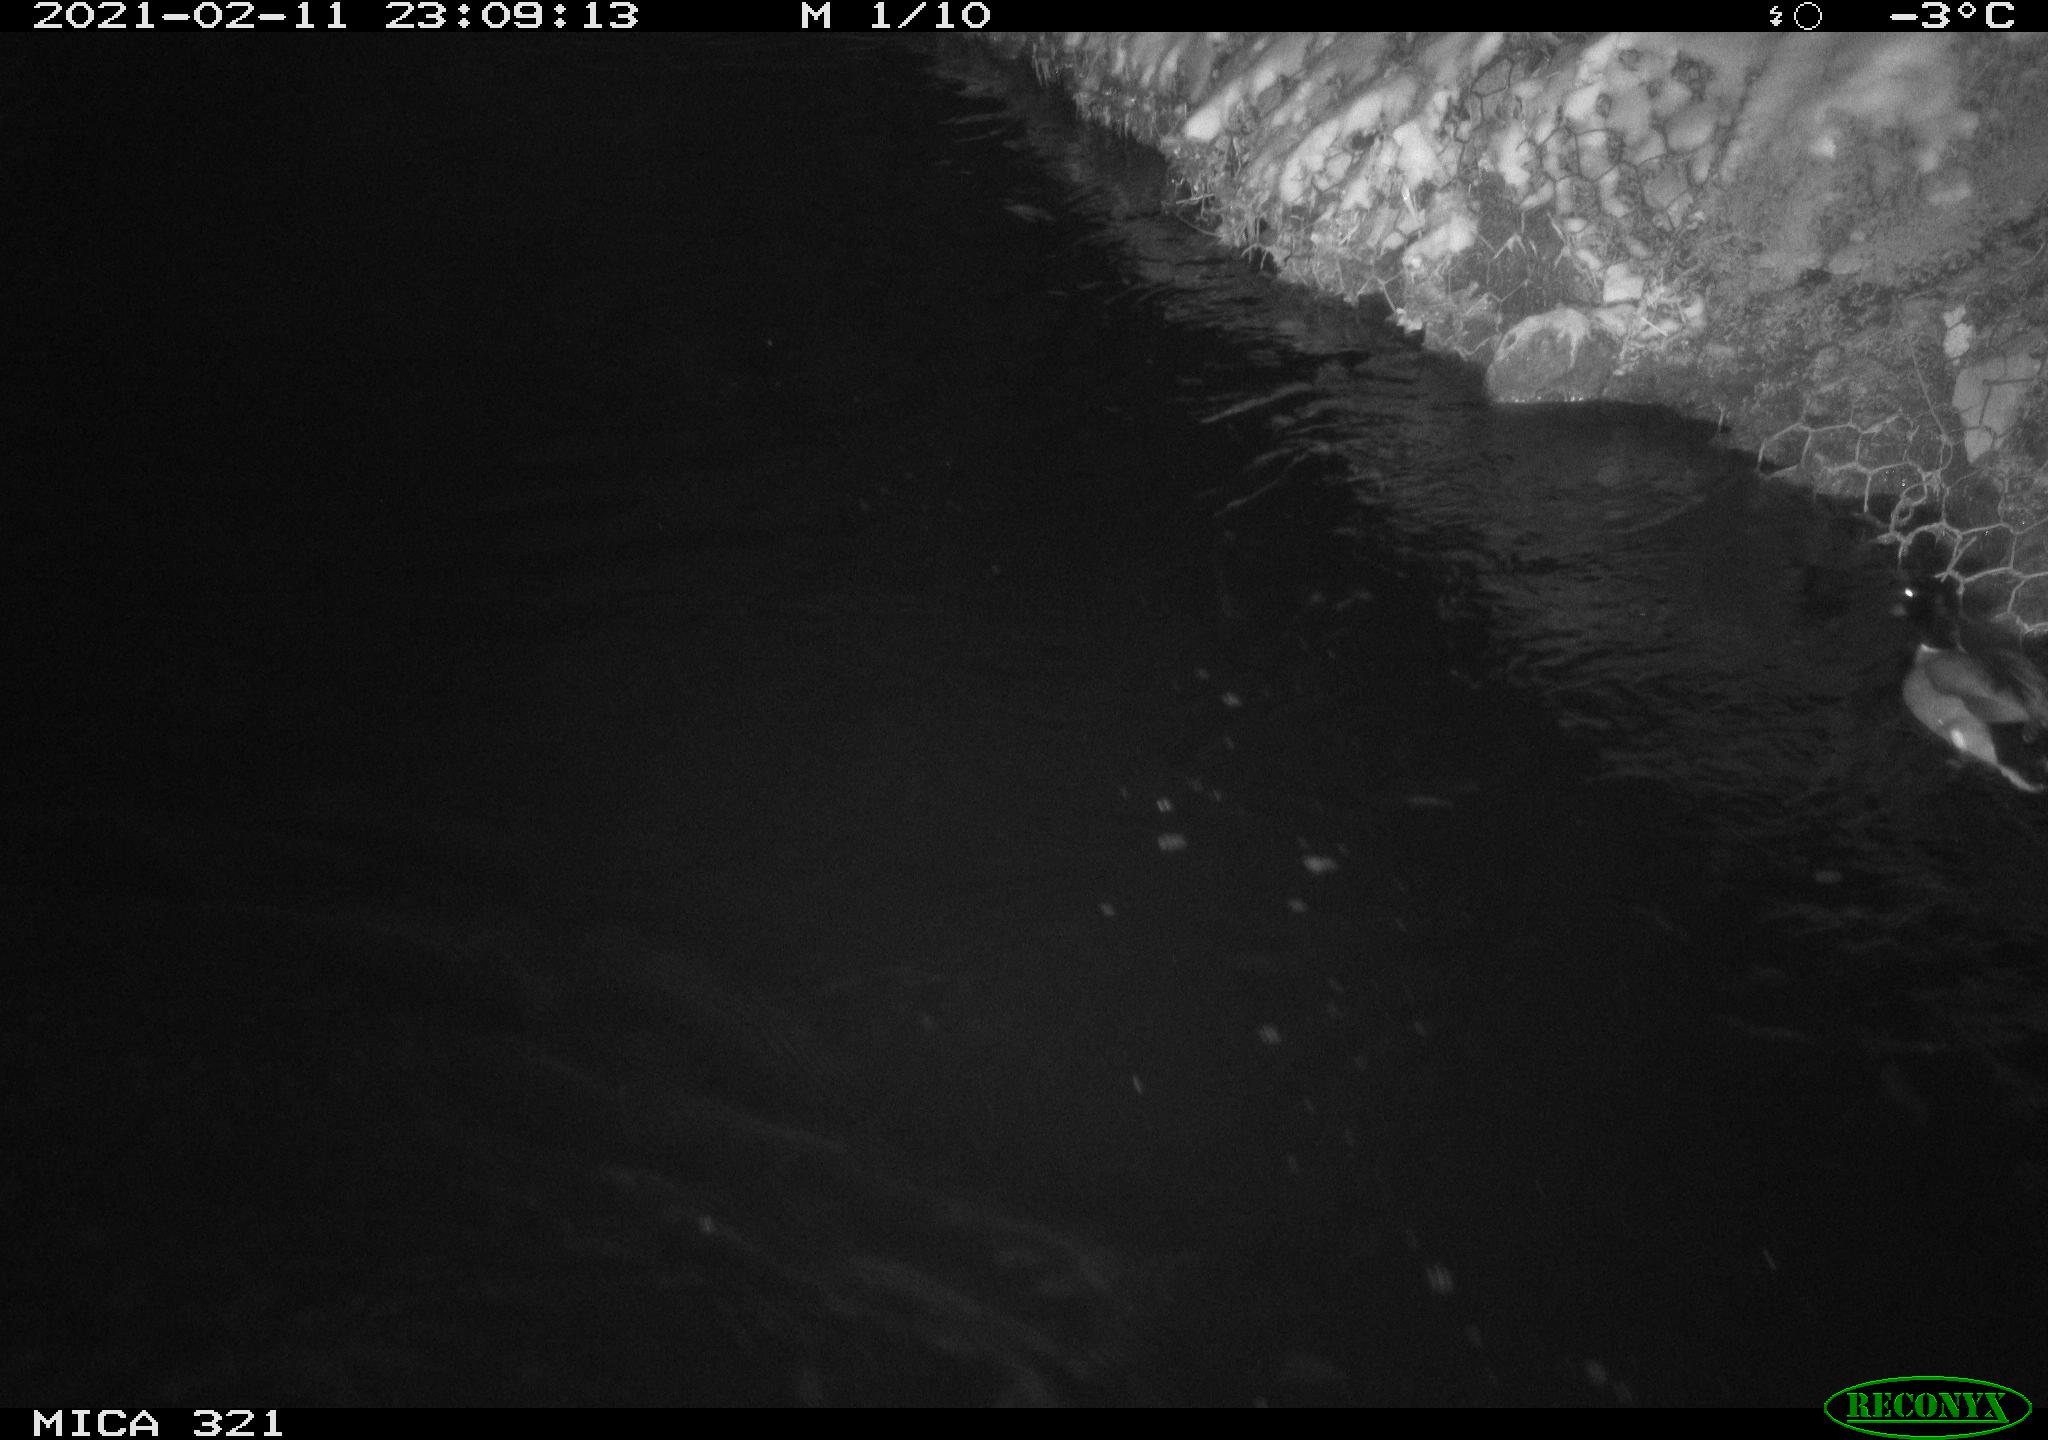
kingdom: Animalia
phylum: Chordata
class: Aves
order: Anseriformes
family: Anatidae
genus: Anas
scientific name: Anas platyrhynchos
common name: Mallard
